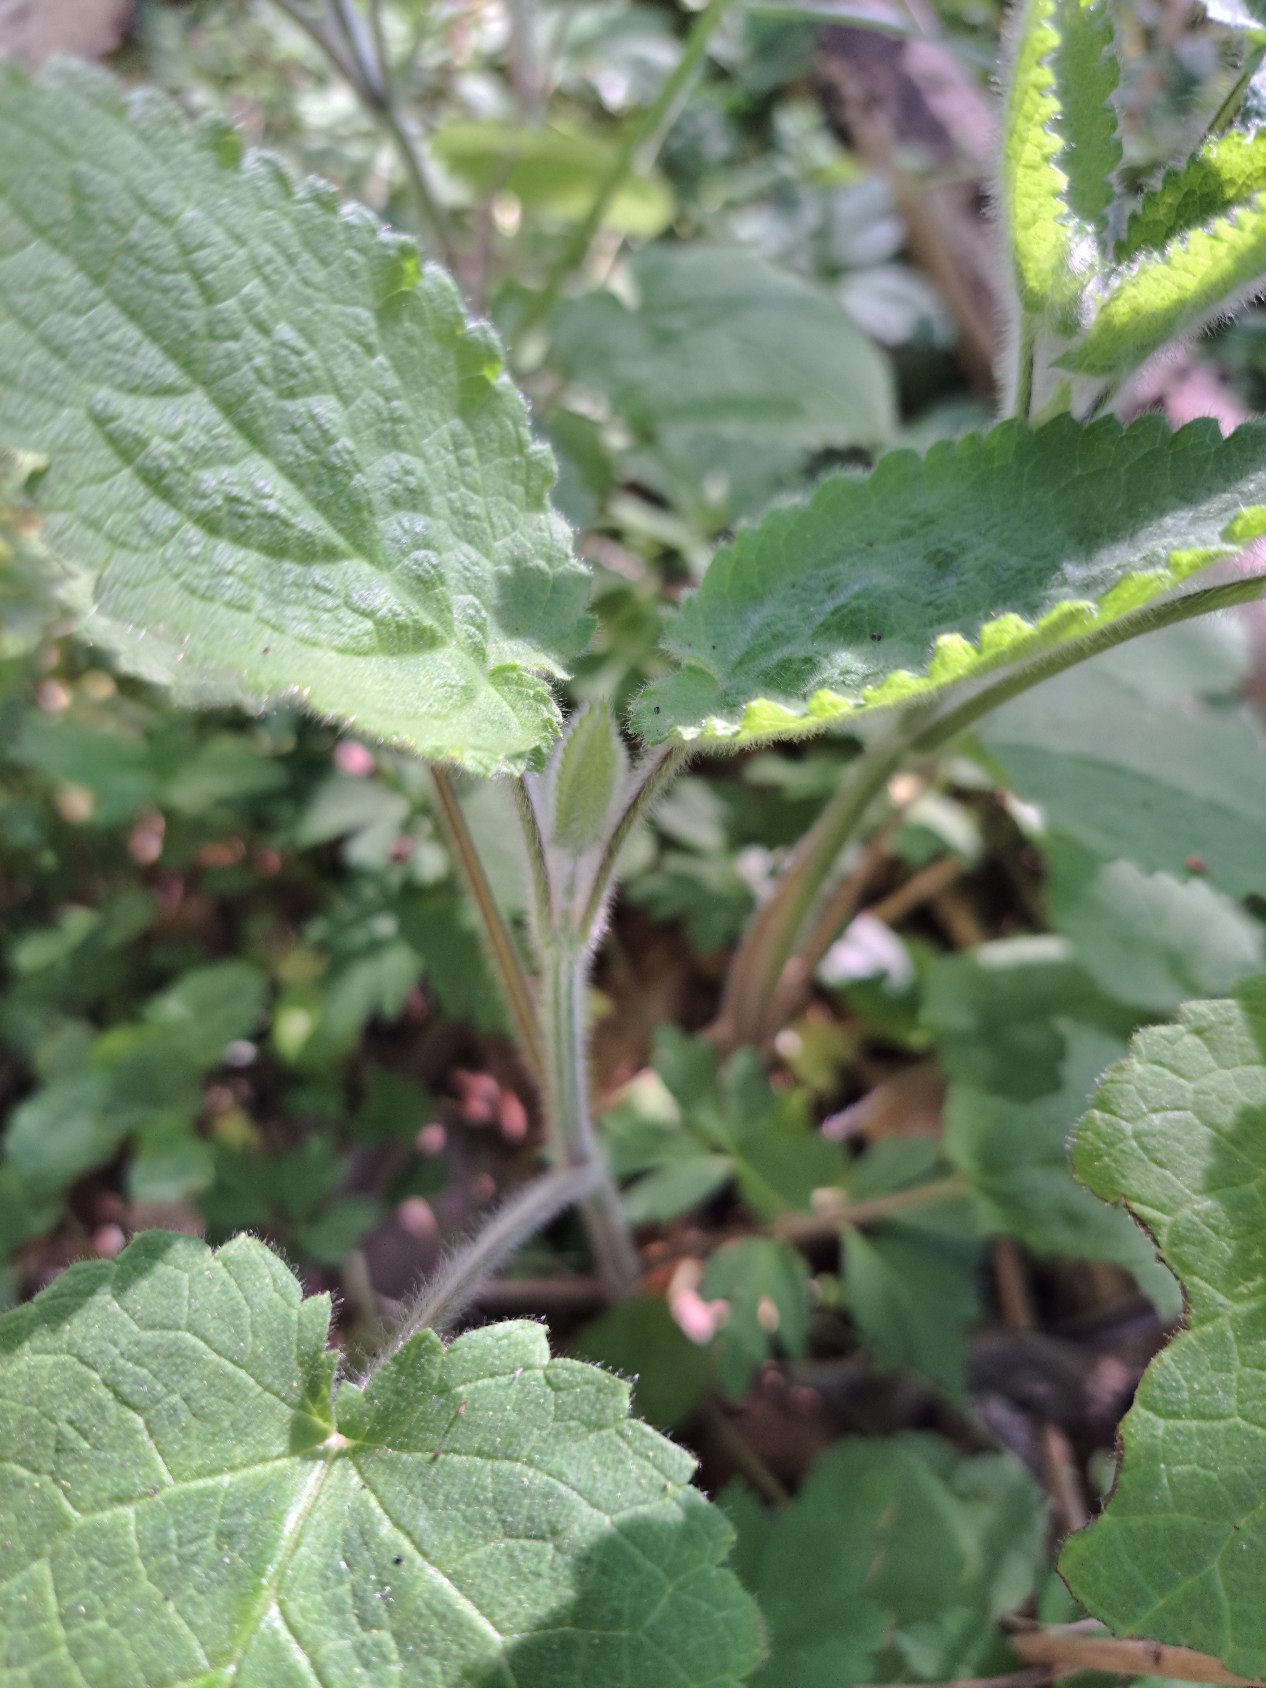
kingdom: Plantae
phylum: Tracheophyta
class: Magnoliopsida
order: Lamiales
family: Lamiaceae
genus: Stachys
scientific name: Stachys sylvatica
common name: Skov-galtetand
